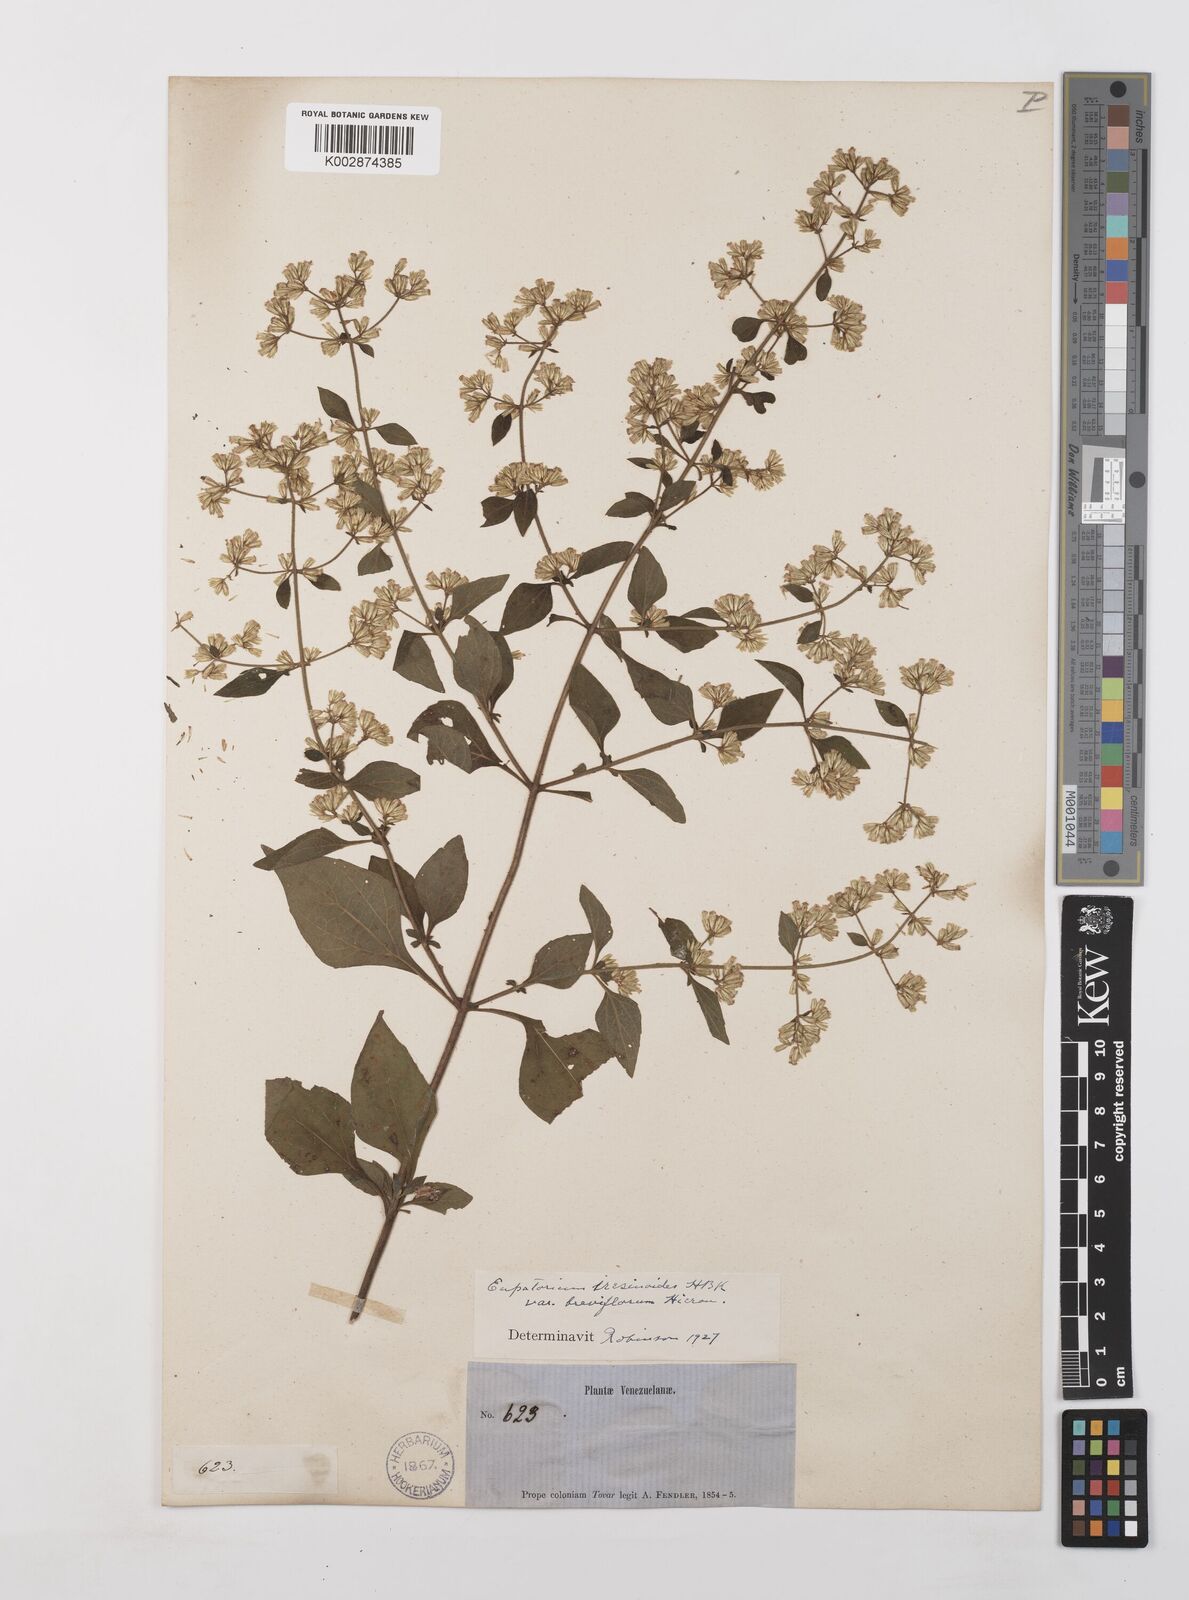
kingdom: Plantae
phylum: Tracheophyta
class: Magnoliopsida
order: Asterales
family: Asteraceae
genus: Condylidium
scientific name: Condylidium iresinoides
